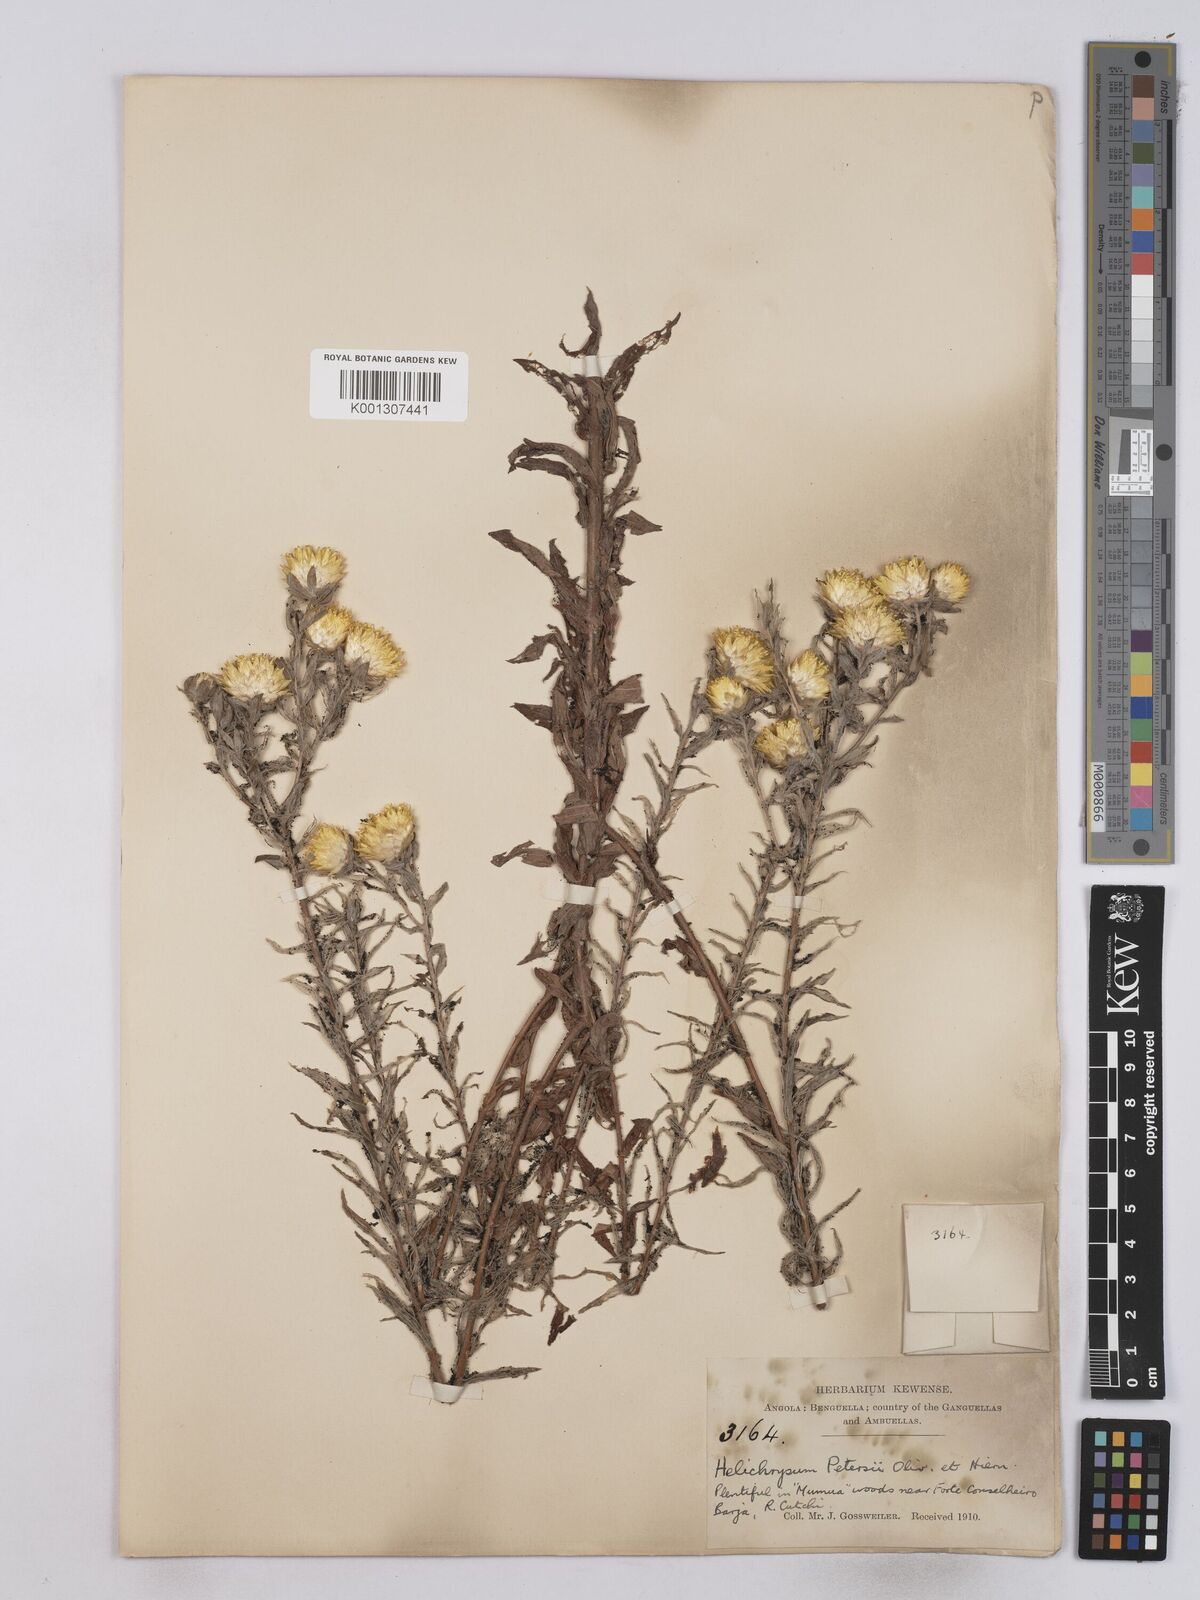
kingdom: Plantae
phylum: Tracheophyta
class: Magnoliopsida
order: Asterales
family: Asteraceae
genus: Helichrysum
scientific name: Helichrysum kirkii
